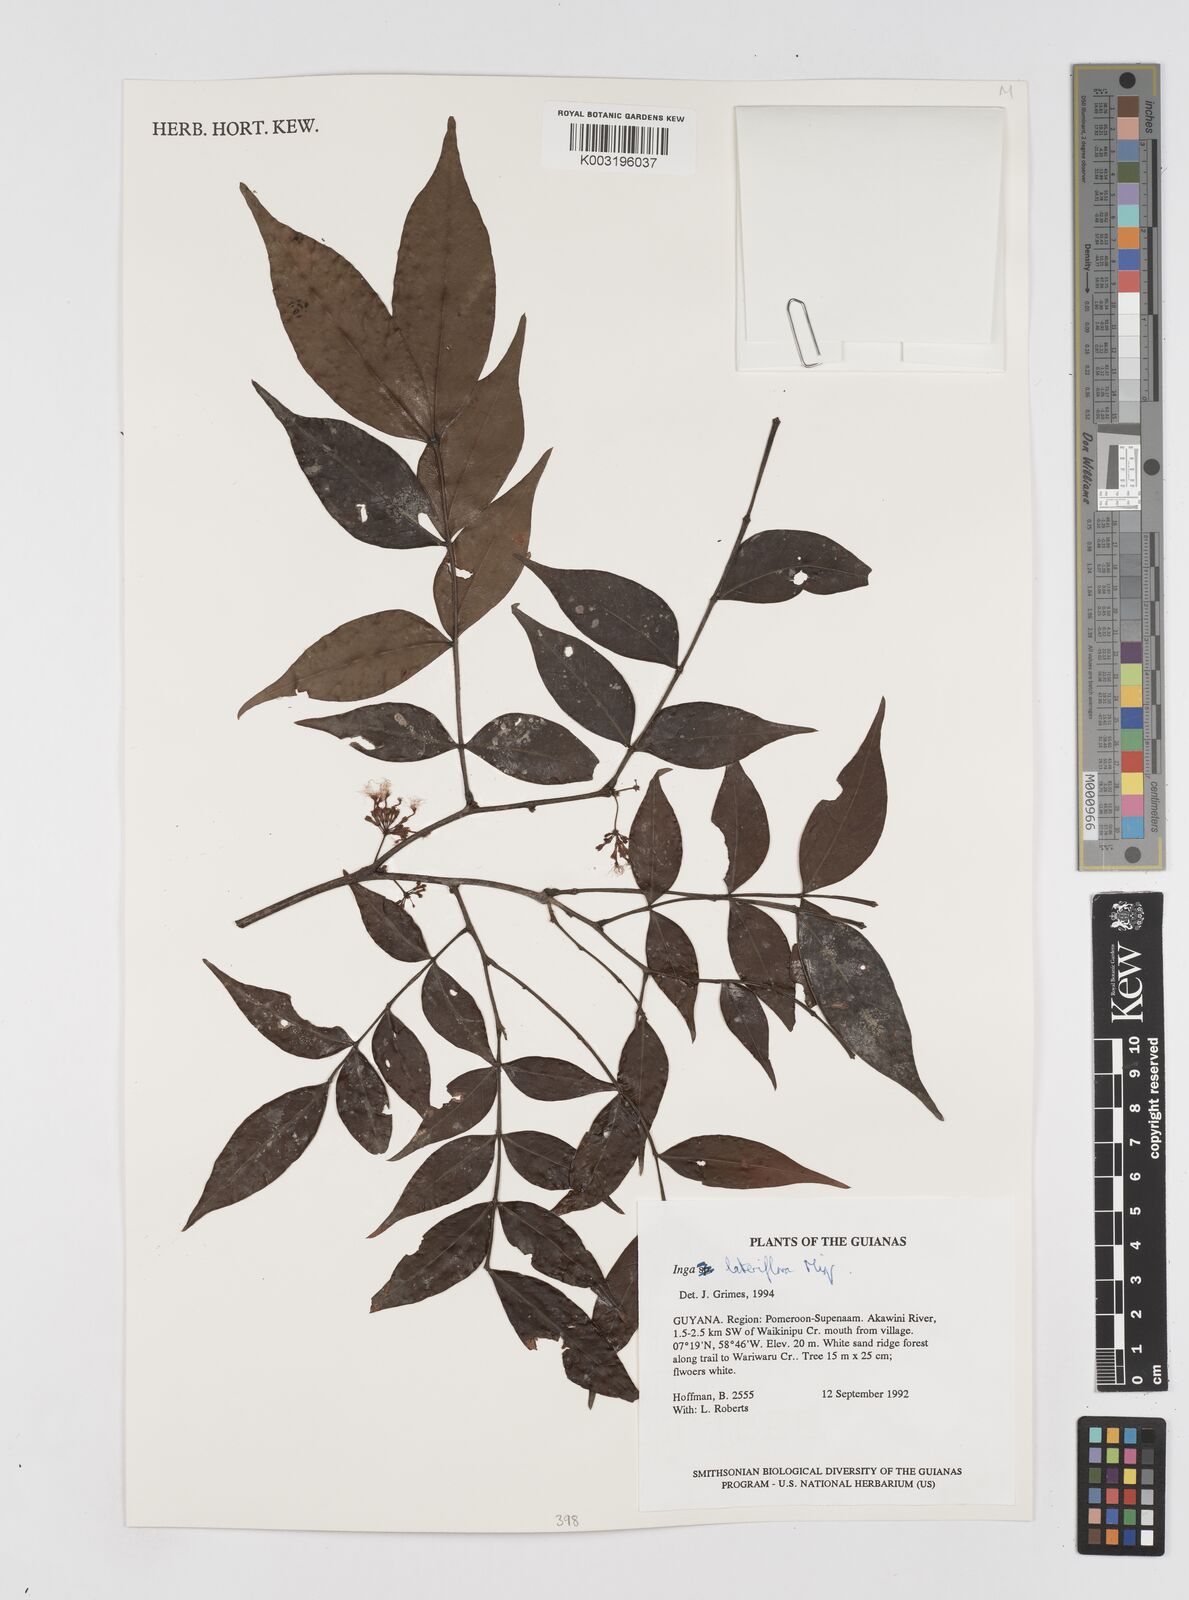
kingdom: Plantae
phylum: Tracheophyta
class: Magnoliopsida
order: Fabales
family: Fabaceae
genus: Inga
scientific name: Inga lateriflora
